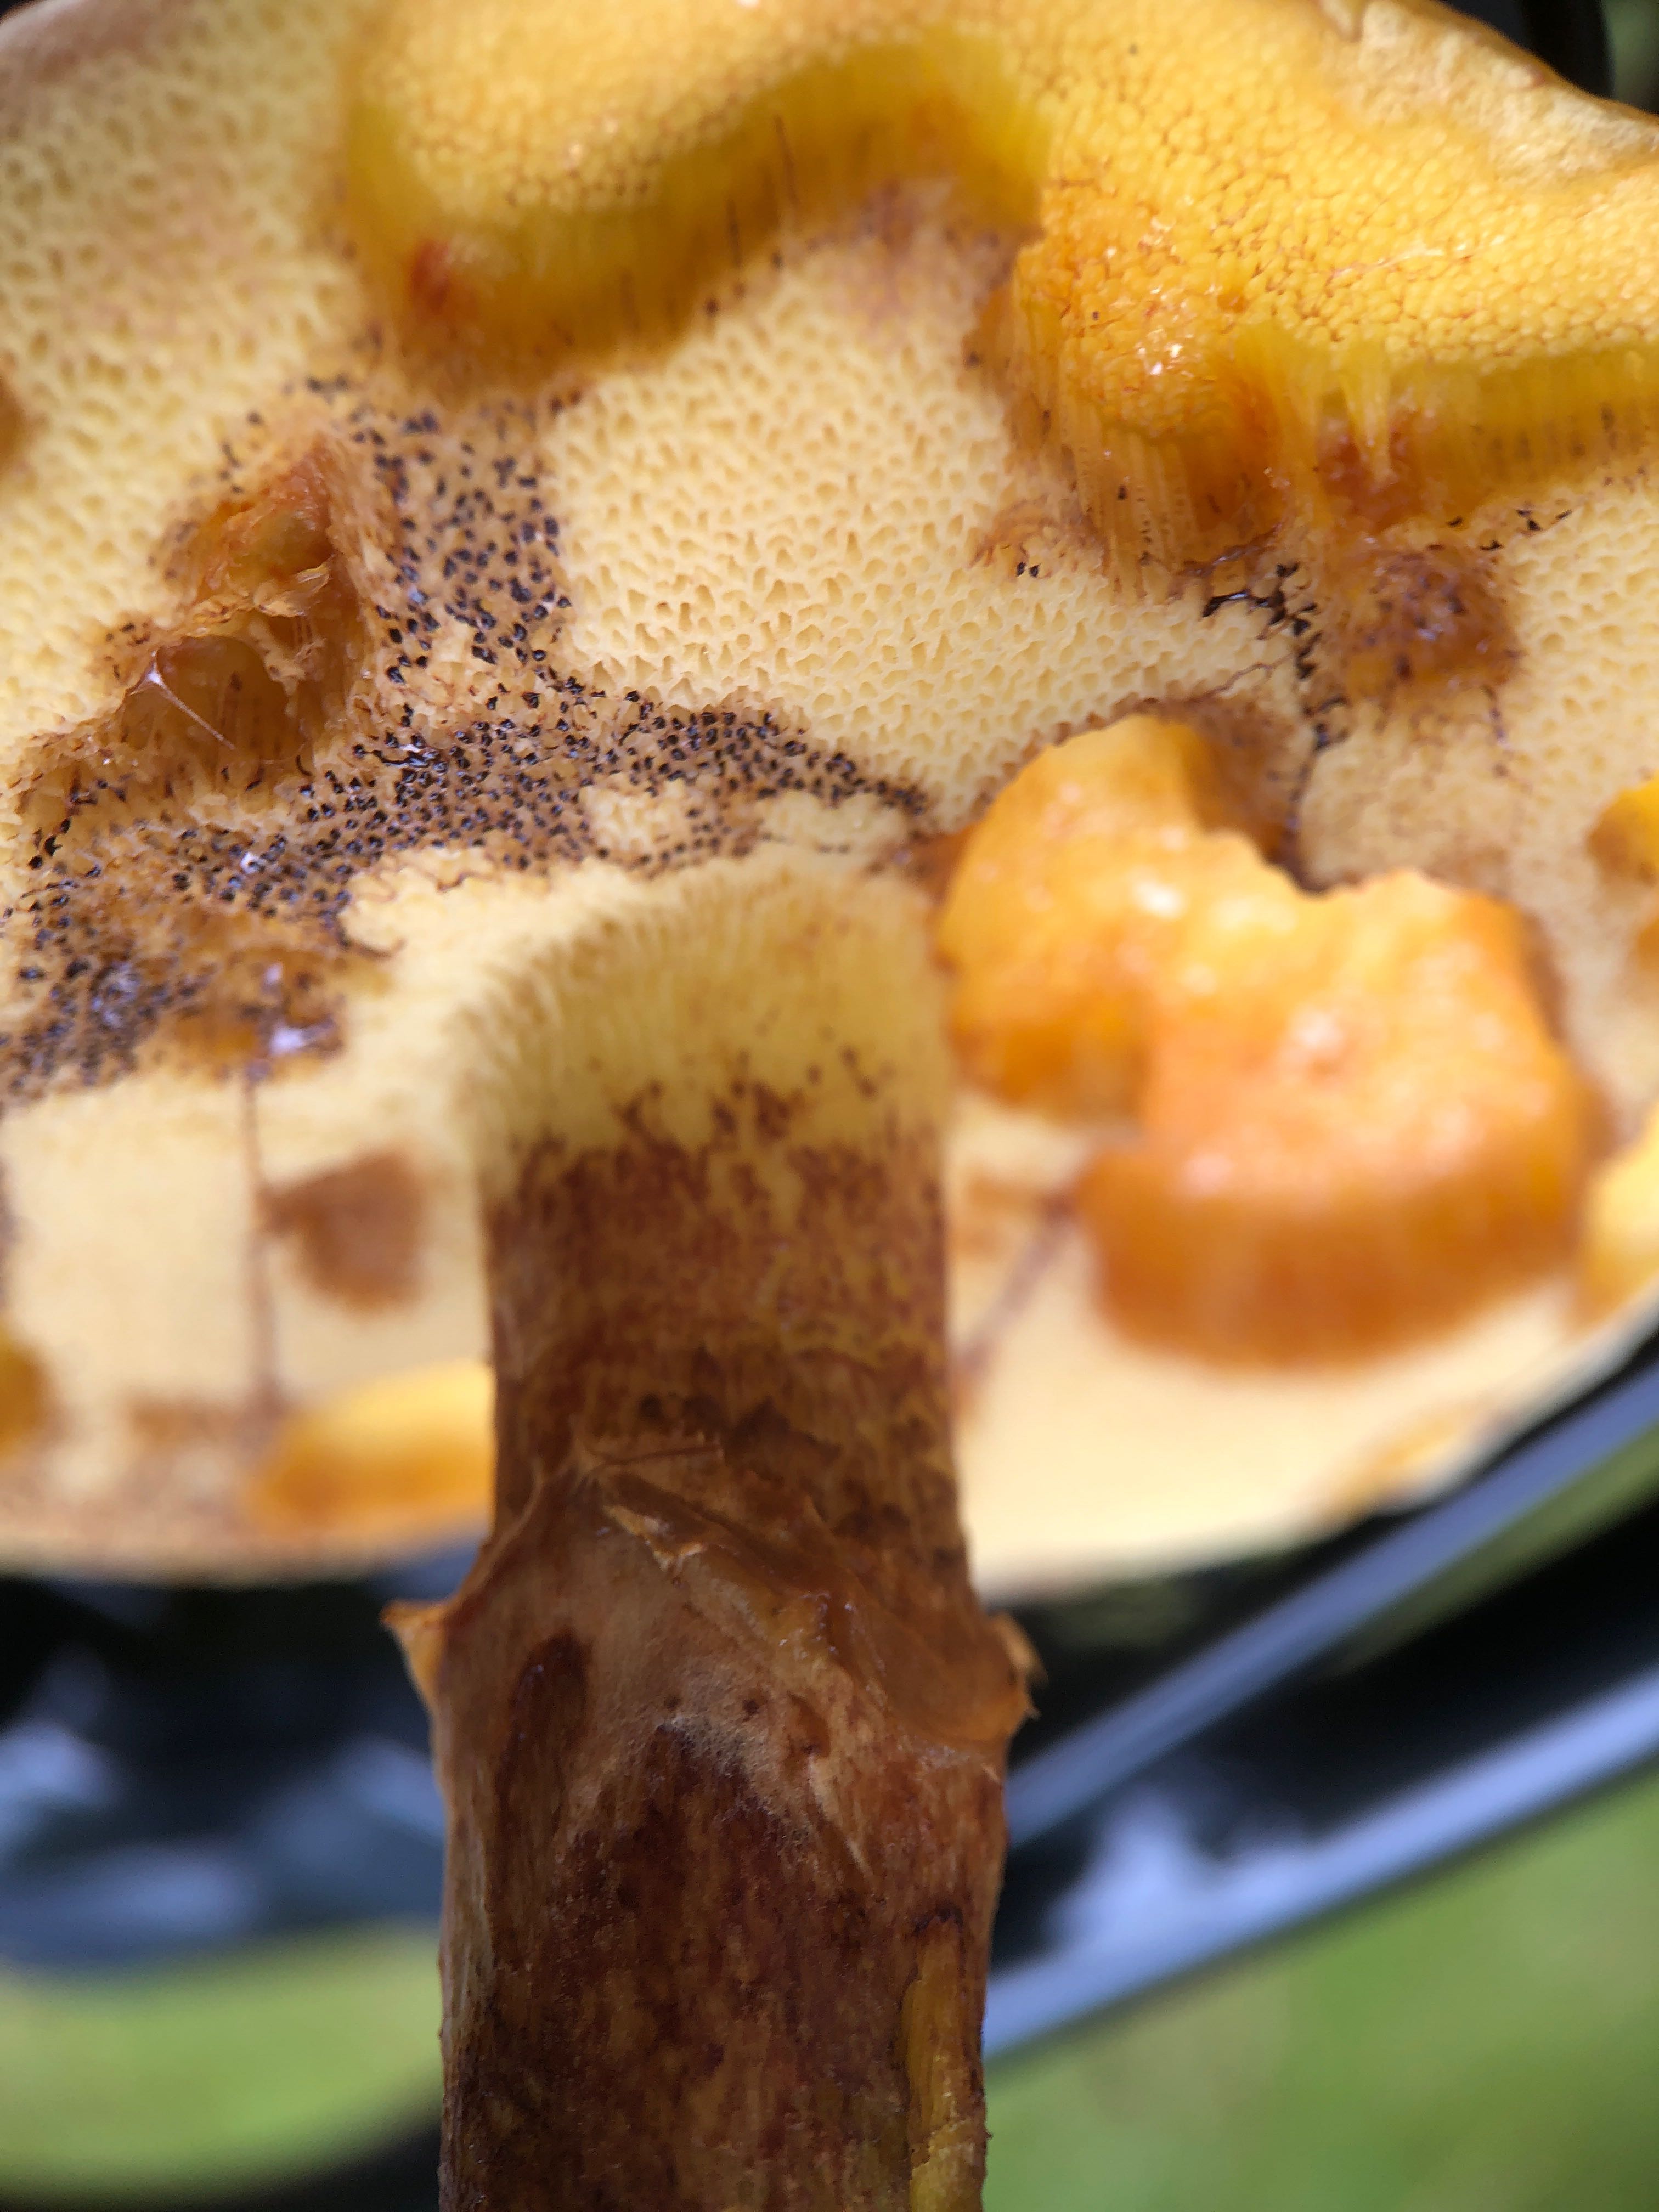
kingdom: Fungi
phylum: Basidiomycota
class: Agaricomycetes
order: Boletales
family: Suillaceae
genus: Suillus
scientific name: Suillus grevillei
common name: lærke-slimrørhat
